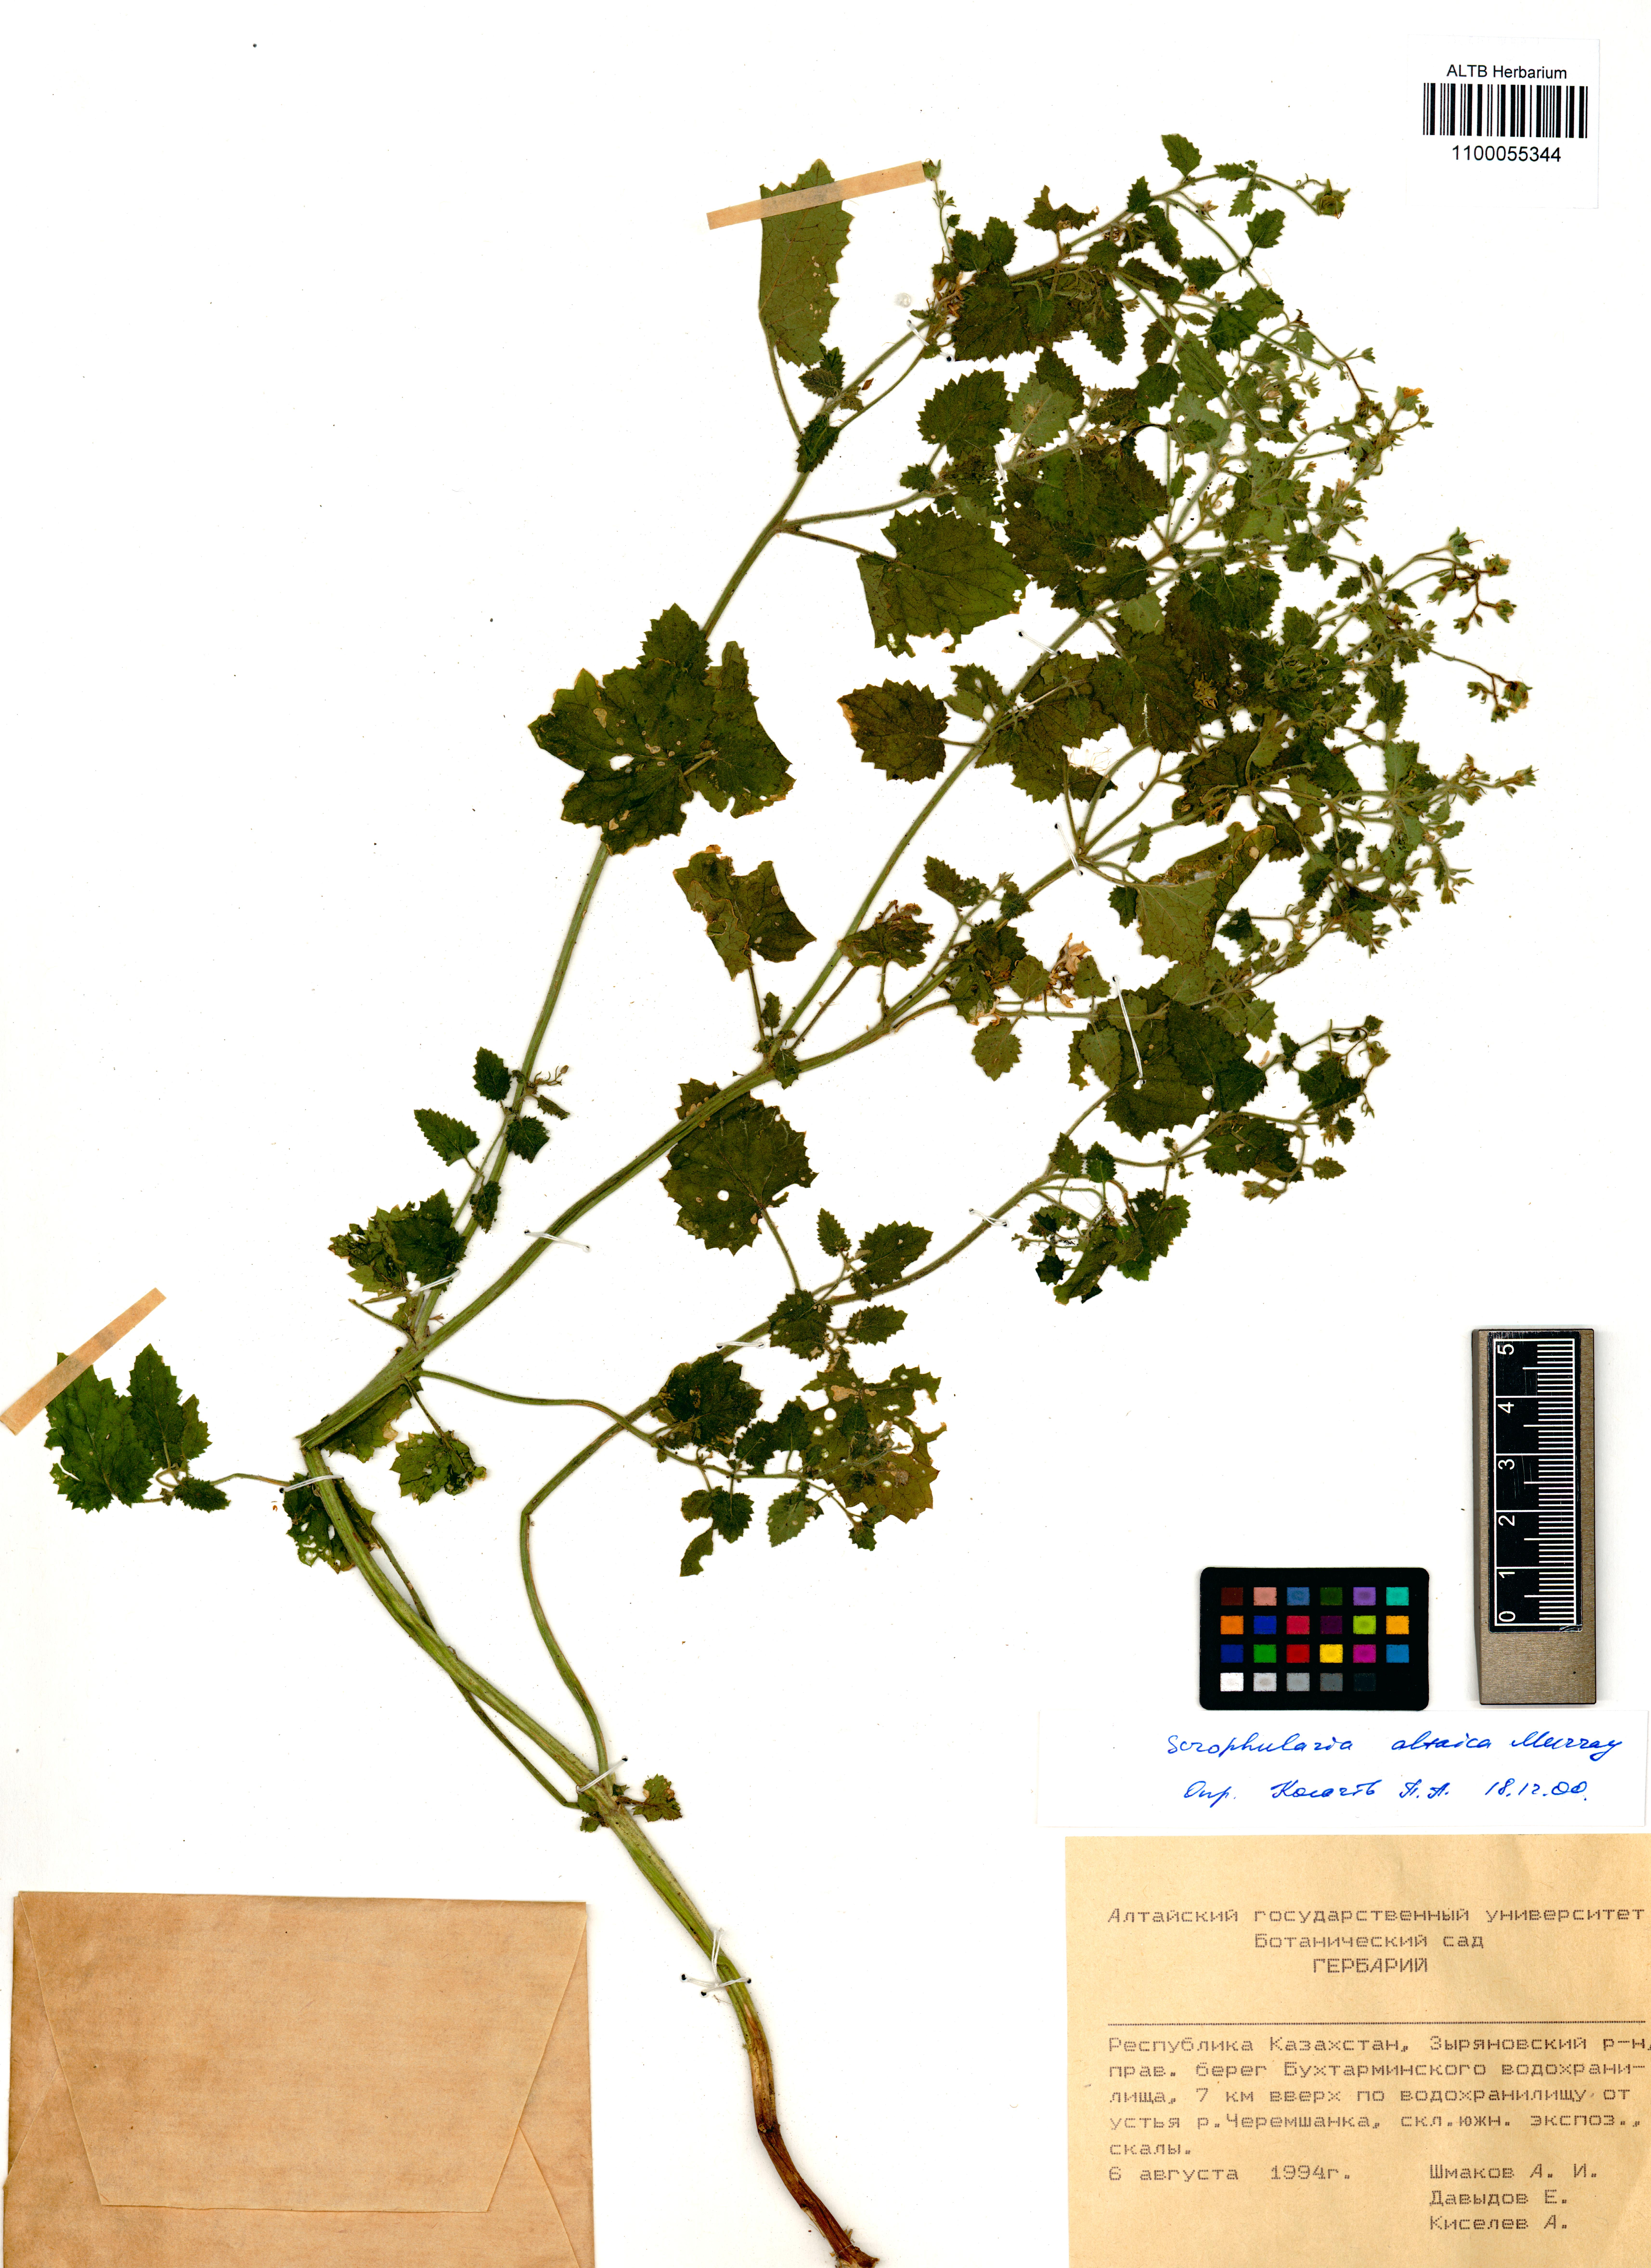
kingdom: Plantae
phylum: Tracheophyta
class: Magnoliopsida
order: Lamiales
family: Scrophulariaceae
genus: Scrophularia
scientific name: Scrophularia altaica
